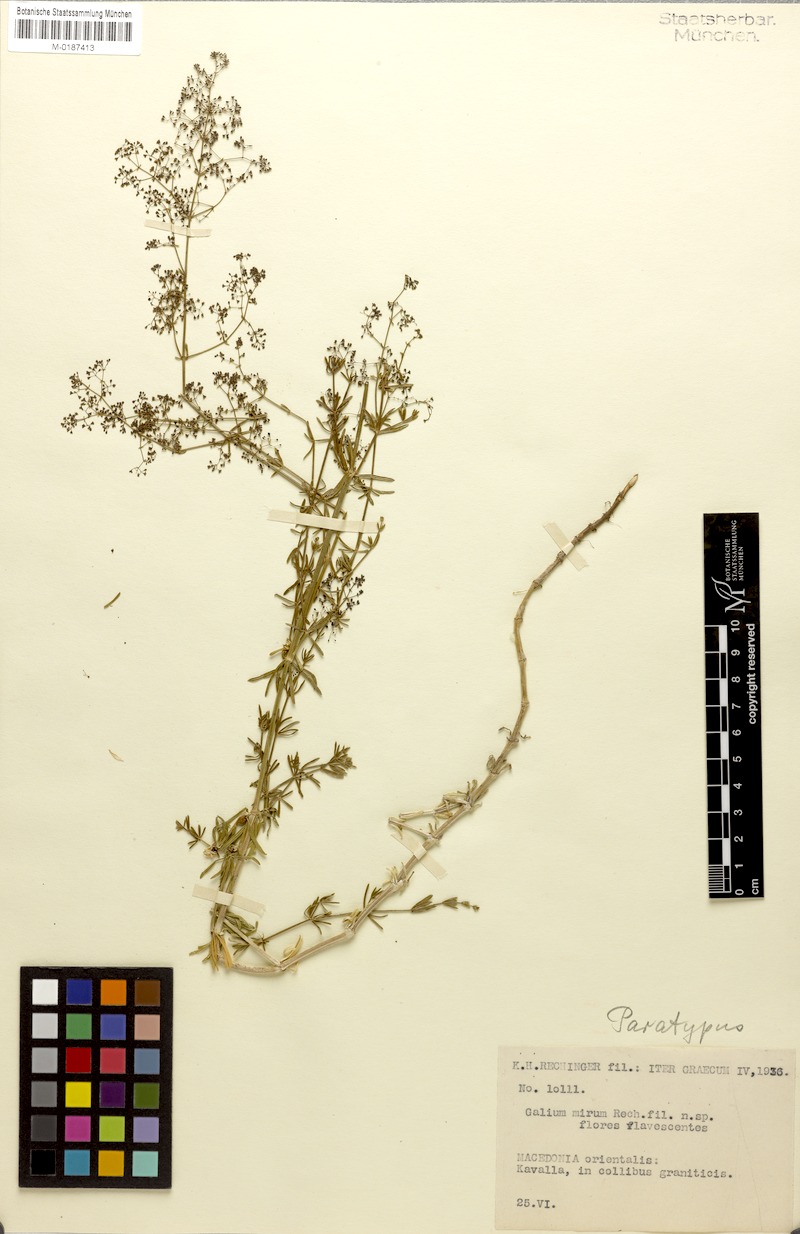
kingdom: Plantae
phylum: Tracheophyta
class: Magnoliopsida
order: Gentianales
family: Rubiaceae
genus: Galium
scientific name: Galium mirum
